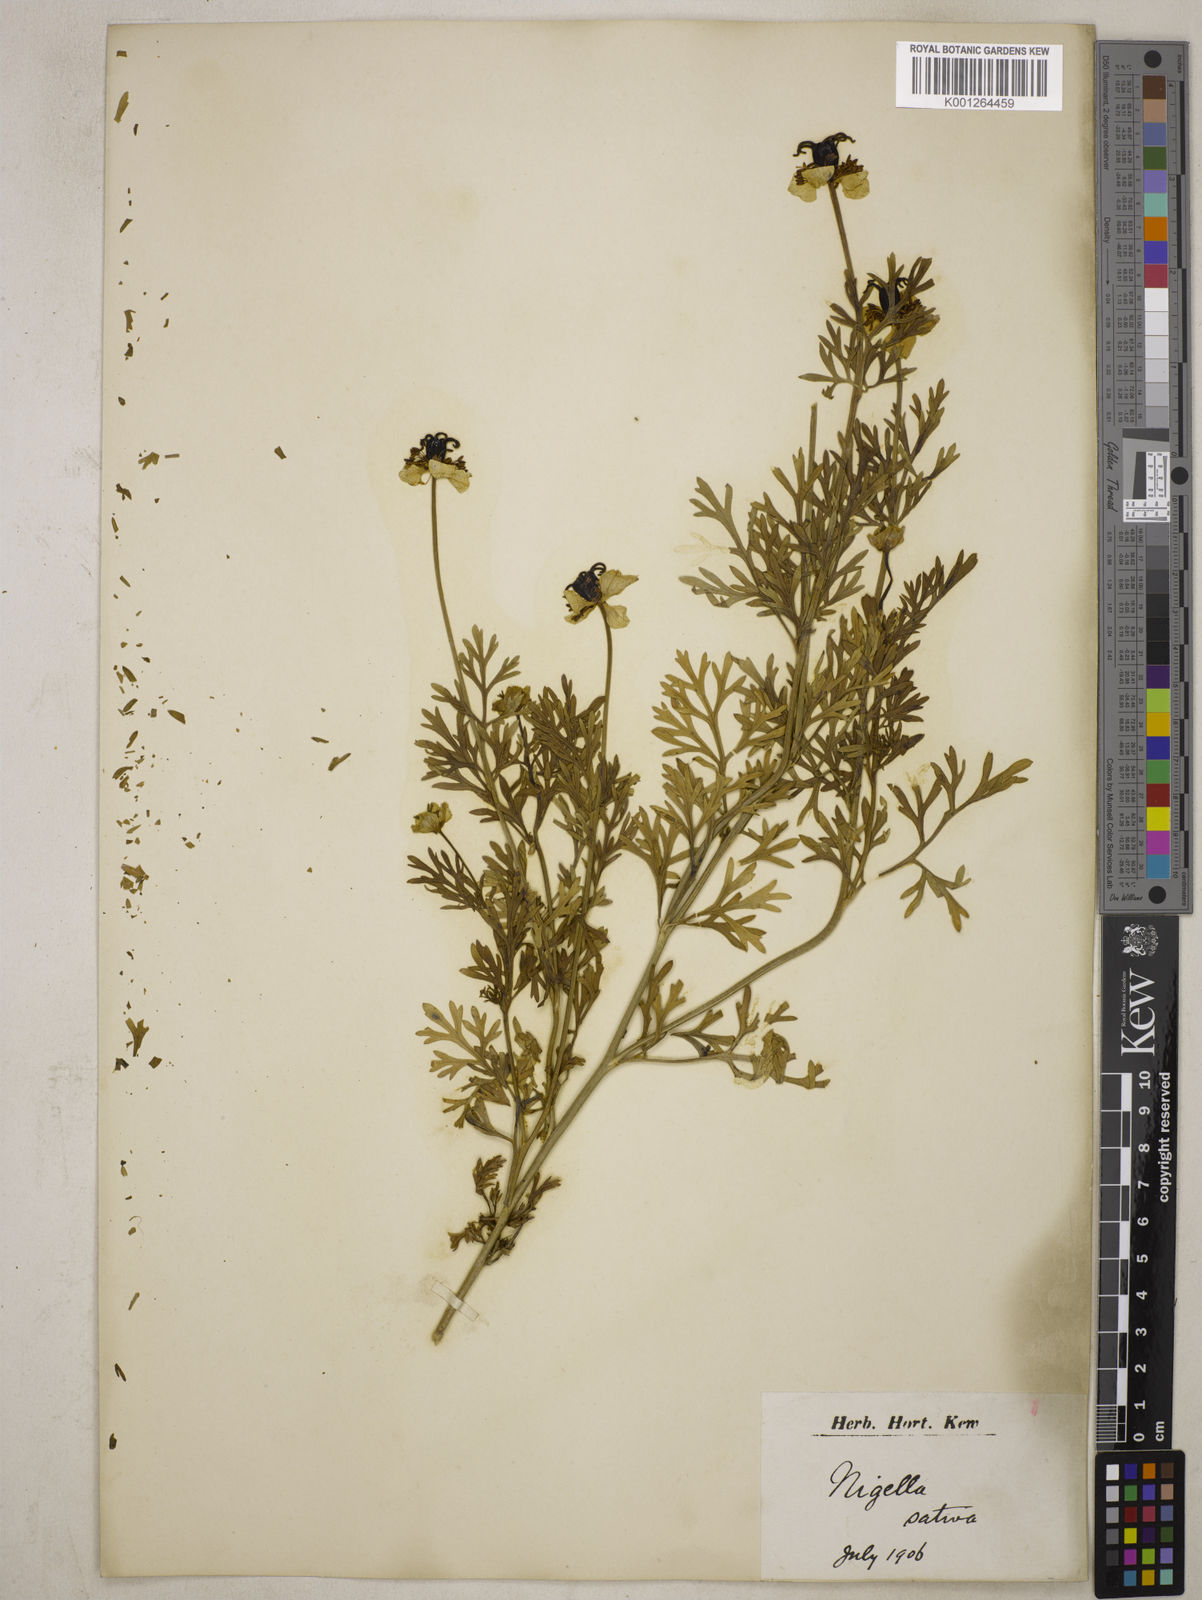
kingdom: Plantae
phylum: Tracheophyta
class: Magnoliopsida
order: Ranunculales
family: Ranunculaceae
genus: Nigella
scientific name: Nigella sativa
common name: Black-cumin
